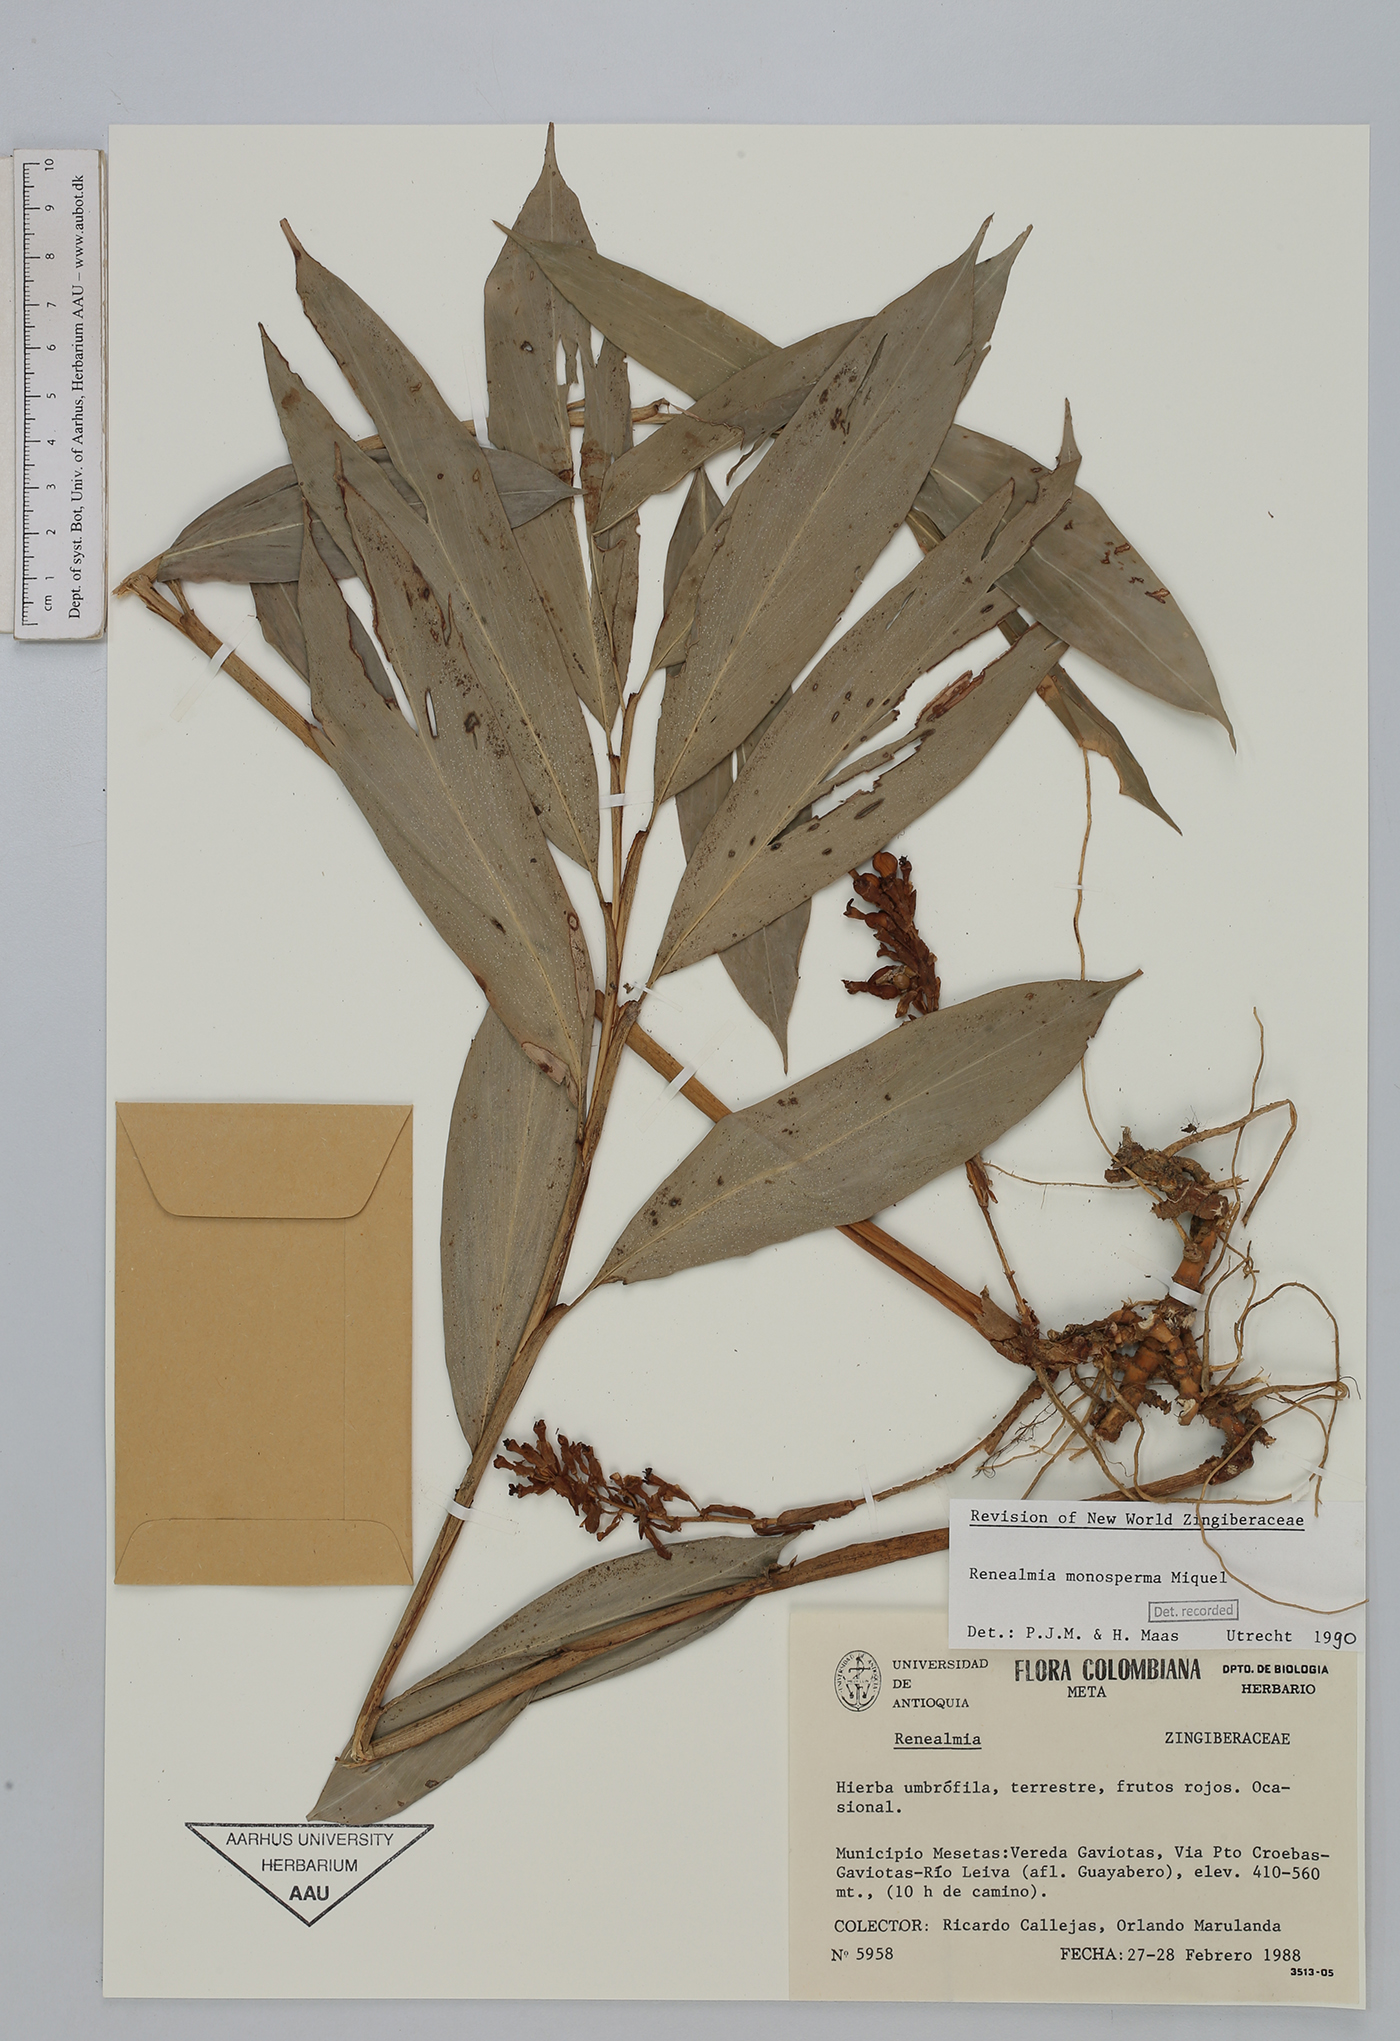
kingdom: Plantae
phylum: Tracheophyta
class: Liliopsida
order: Zingiberales
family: Zingiberaceae
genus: Renealmia
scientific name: Renealmia monosperma
